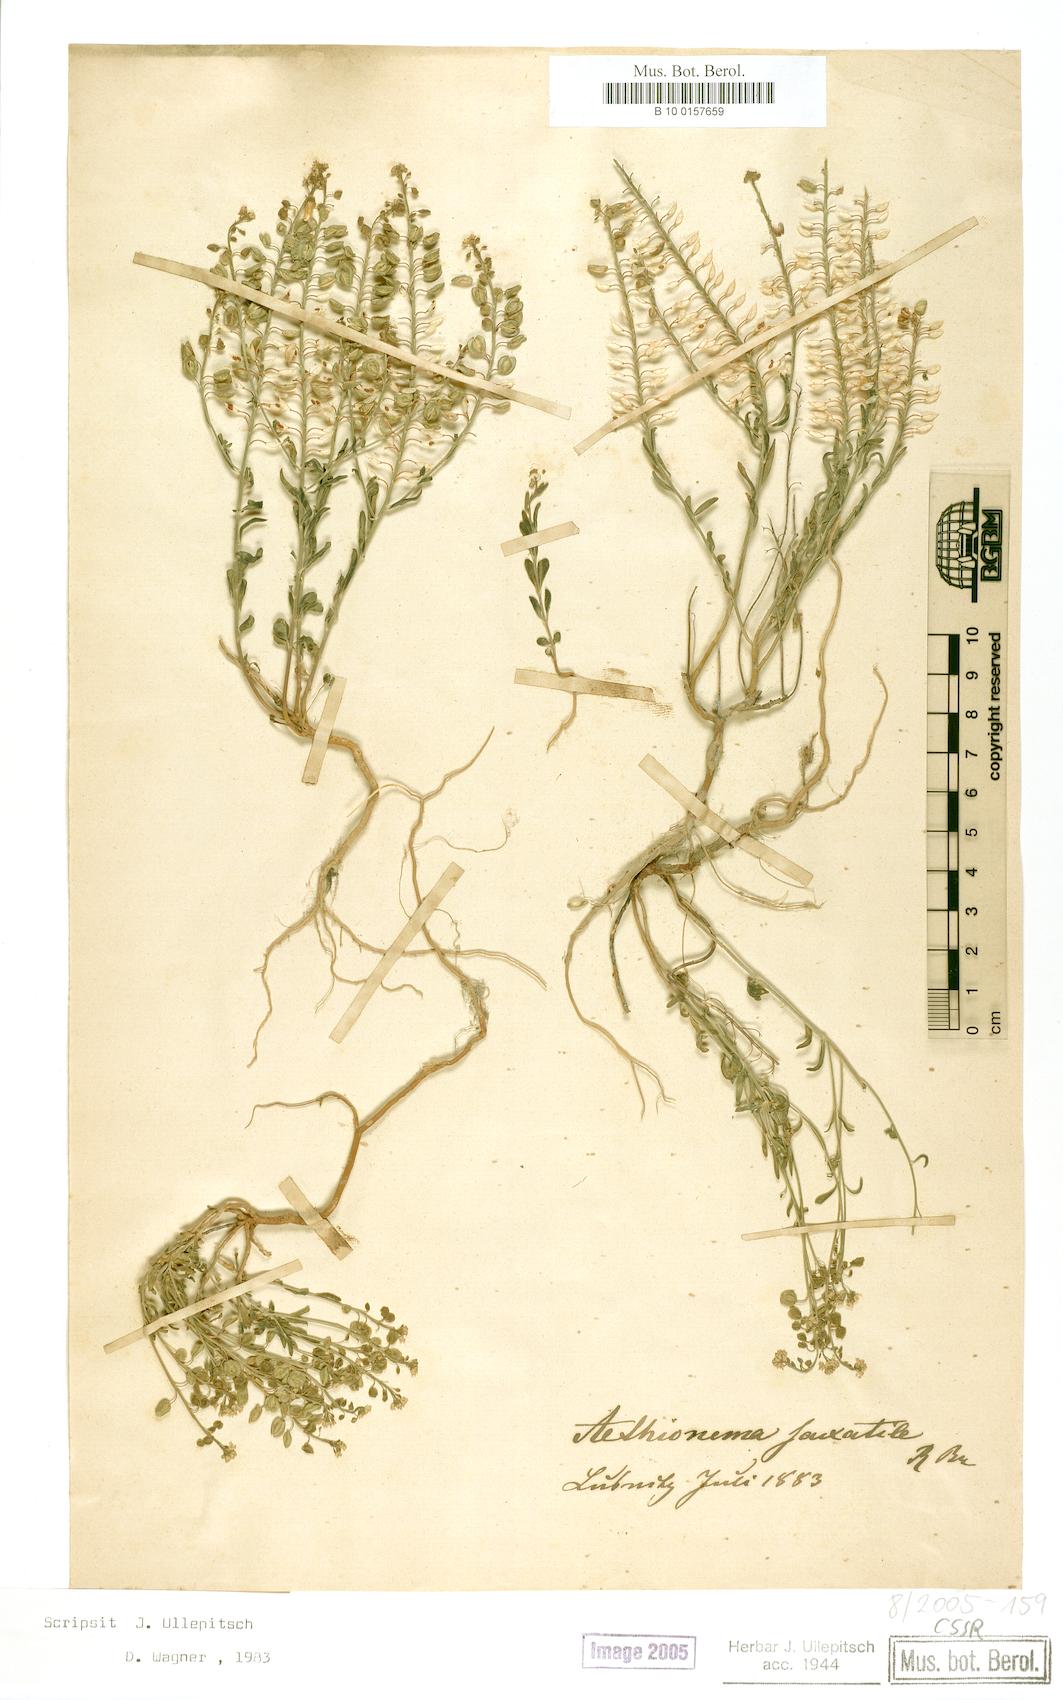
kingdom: Plantae
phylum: Tracheophyta
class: Magnoliopsida
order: Brassicales
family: Brassicaceae
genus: Aethionema
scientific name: Aethionema saxatile
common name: Burnt candytuft
